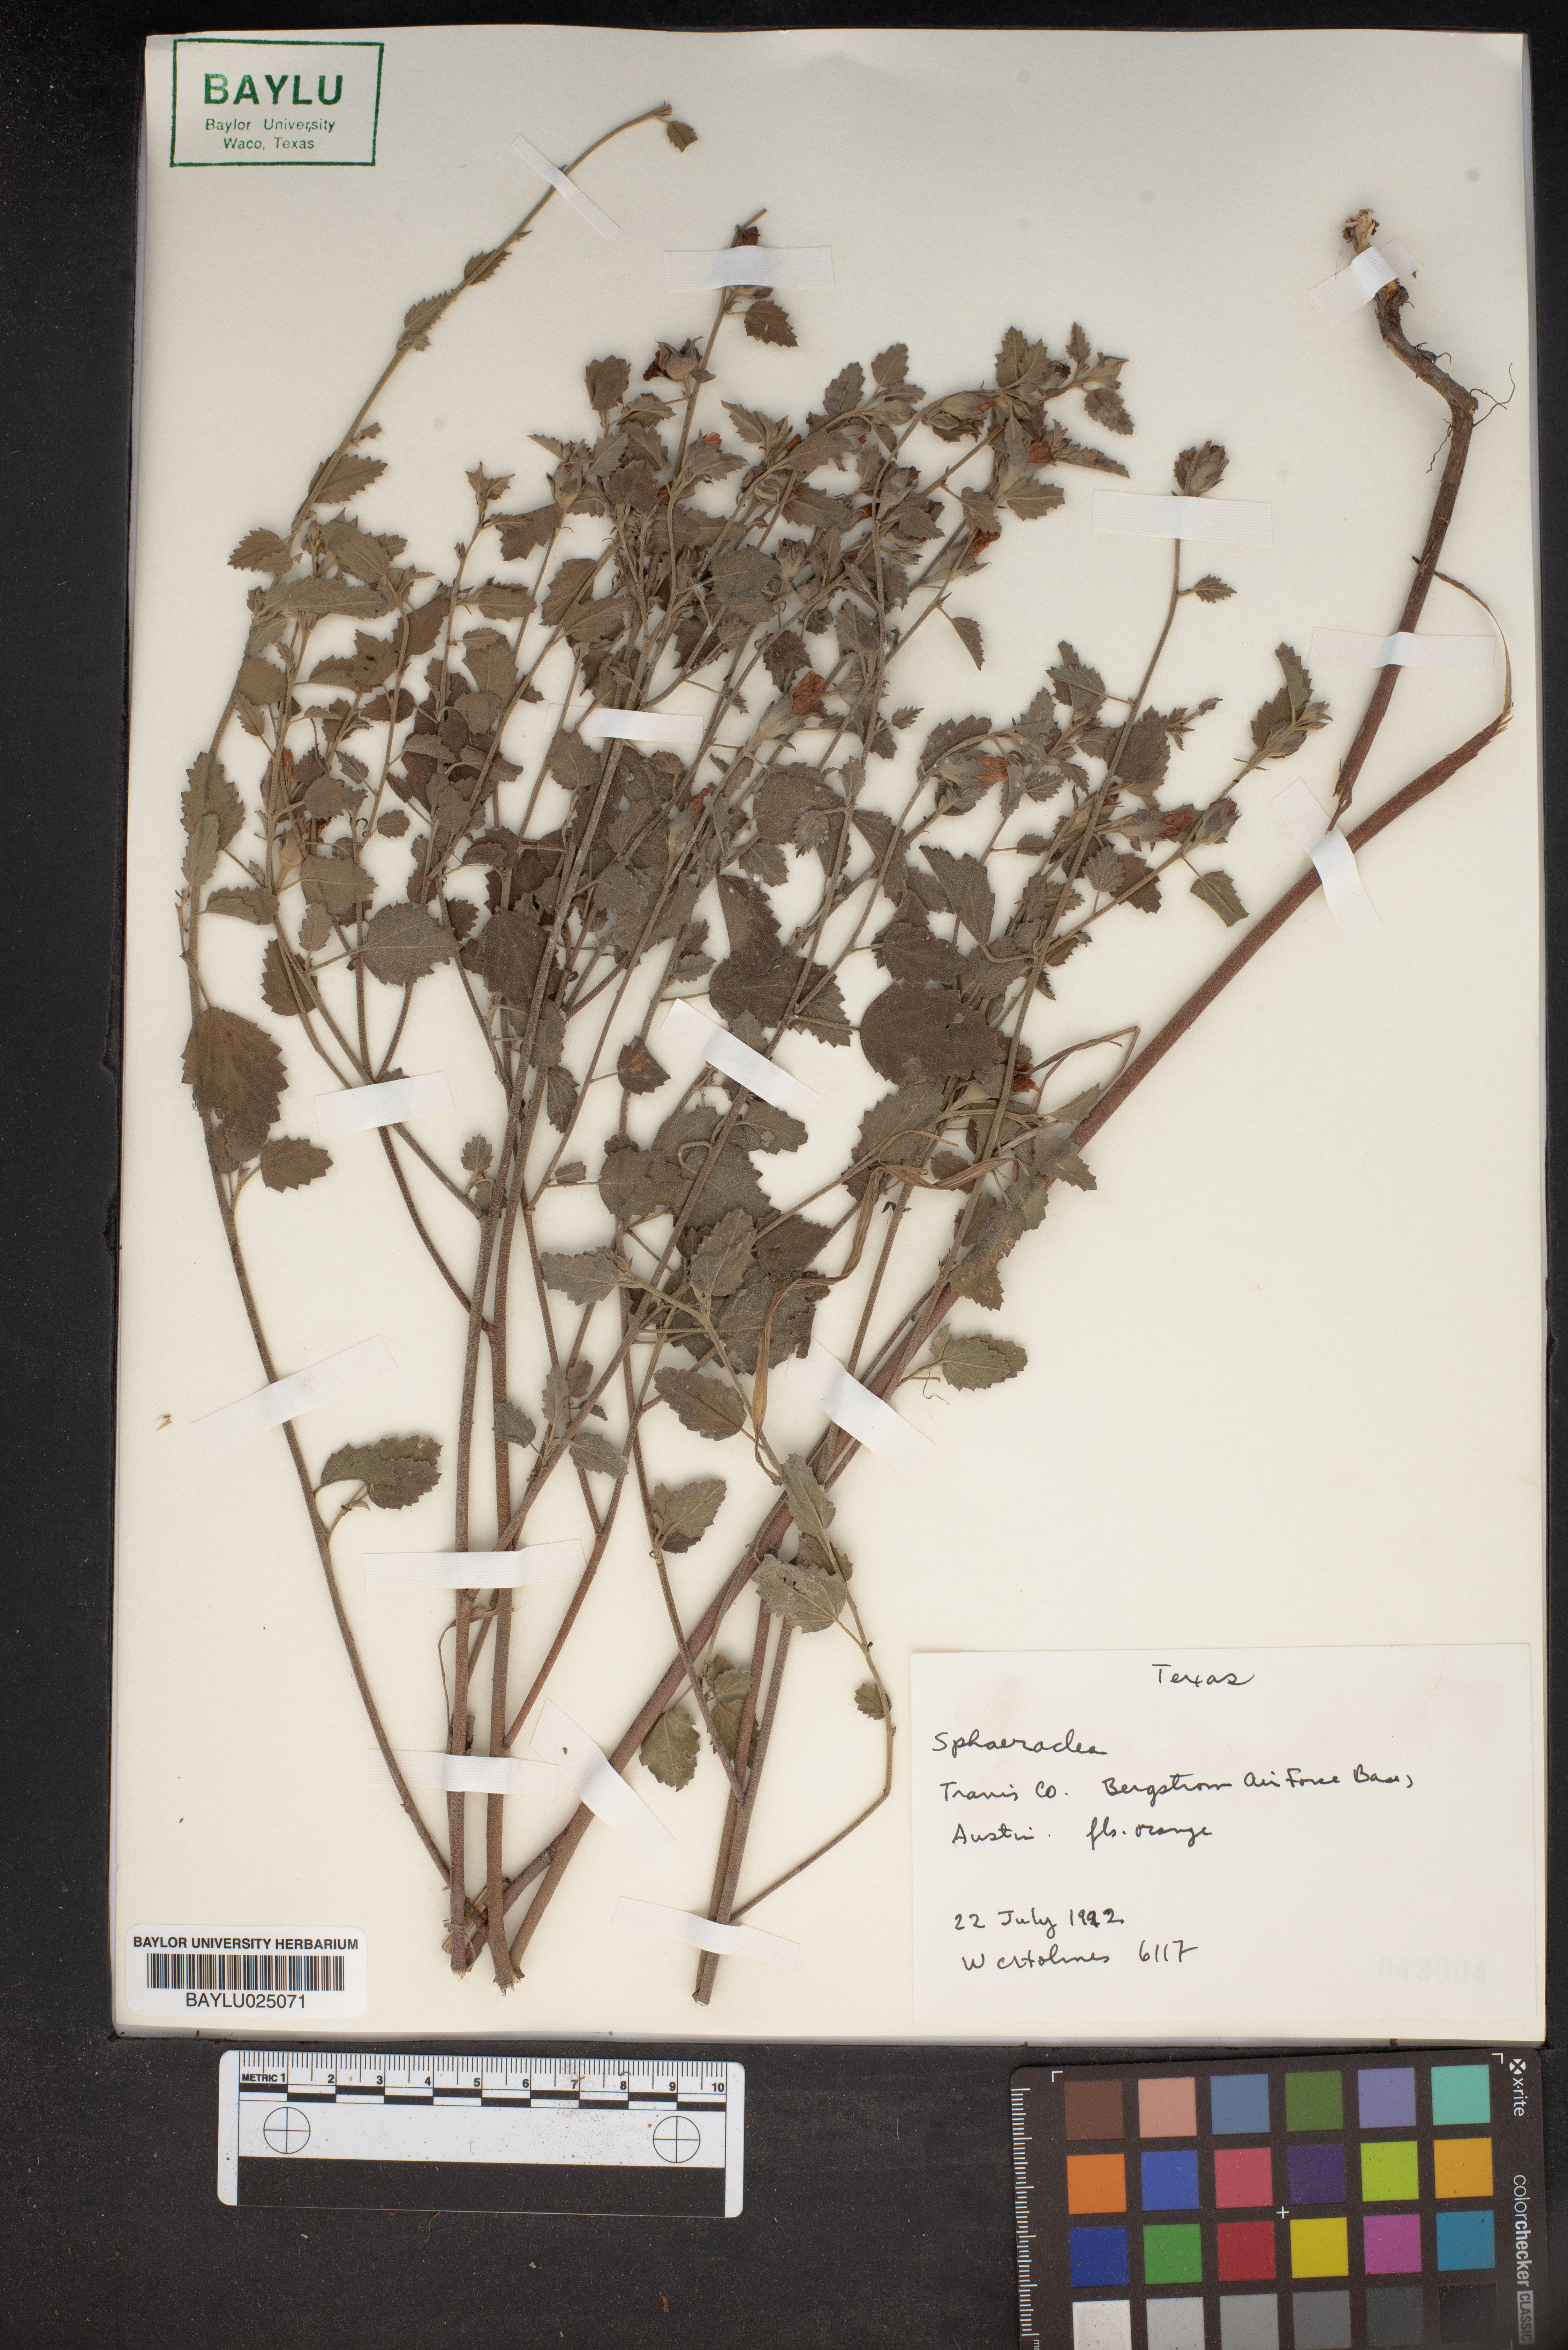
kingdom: Plantae
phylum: Tracheophyta
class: Magnoliopsida
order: Malvales
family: Malvaceae
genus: Sphaeralcea
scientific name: Sphaeralcea
